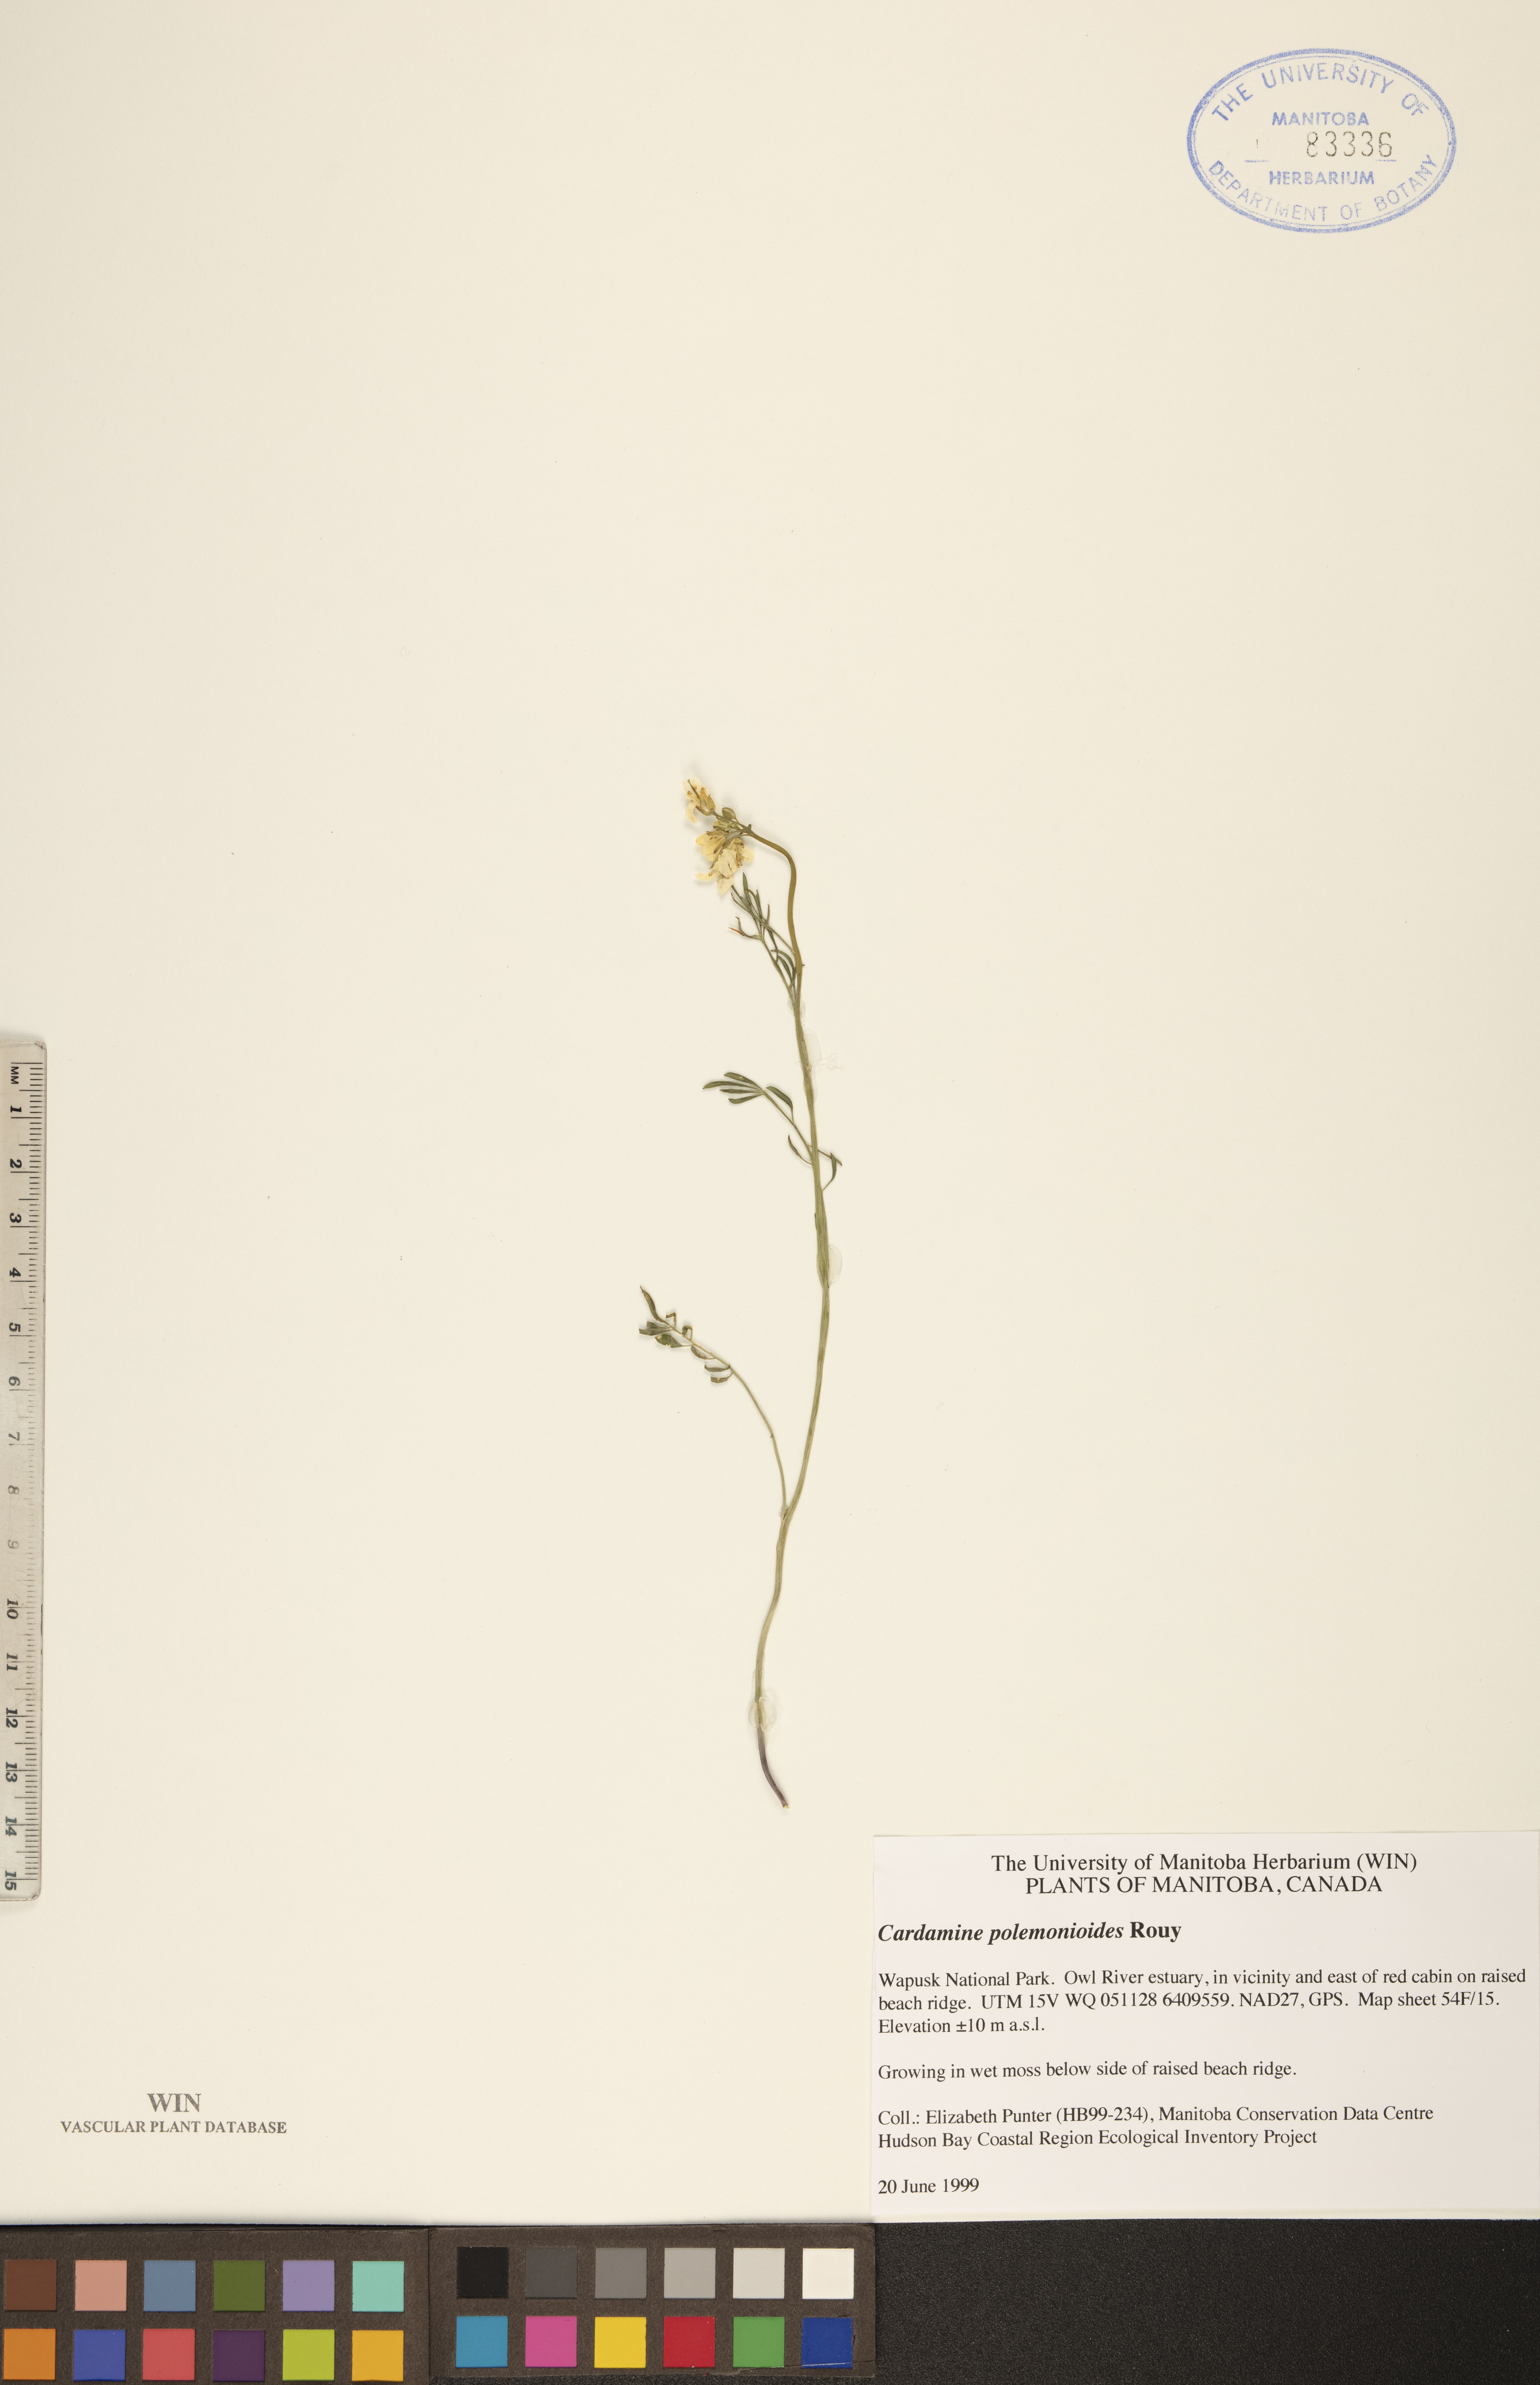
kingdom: Plantae
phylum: Tracheophyta
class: Magnoliopsida
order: Brassicales
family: Brassicaceae
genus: Cardamine
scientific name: Cardamine nymanii
